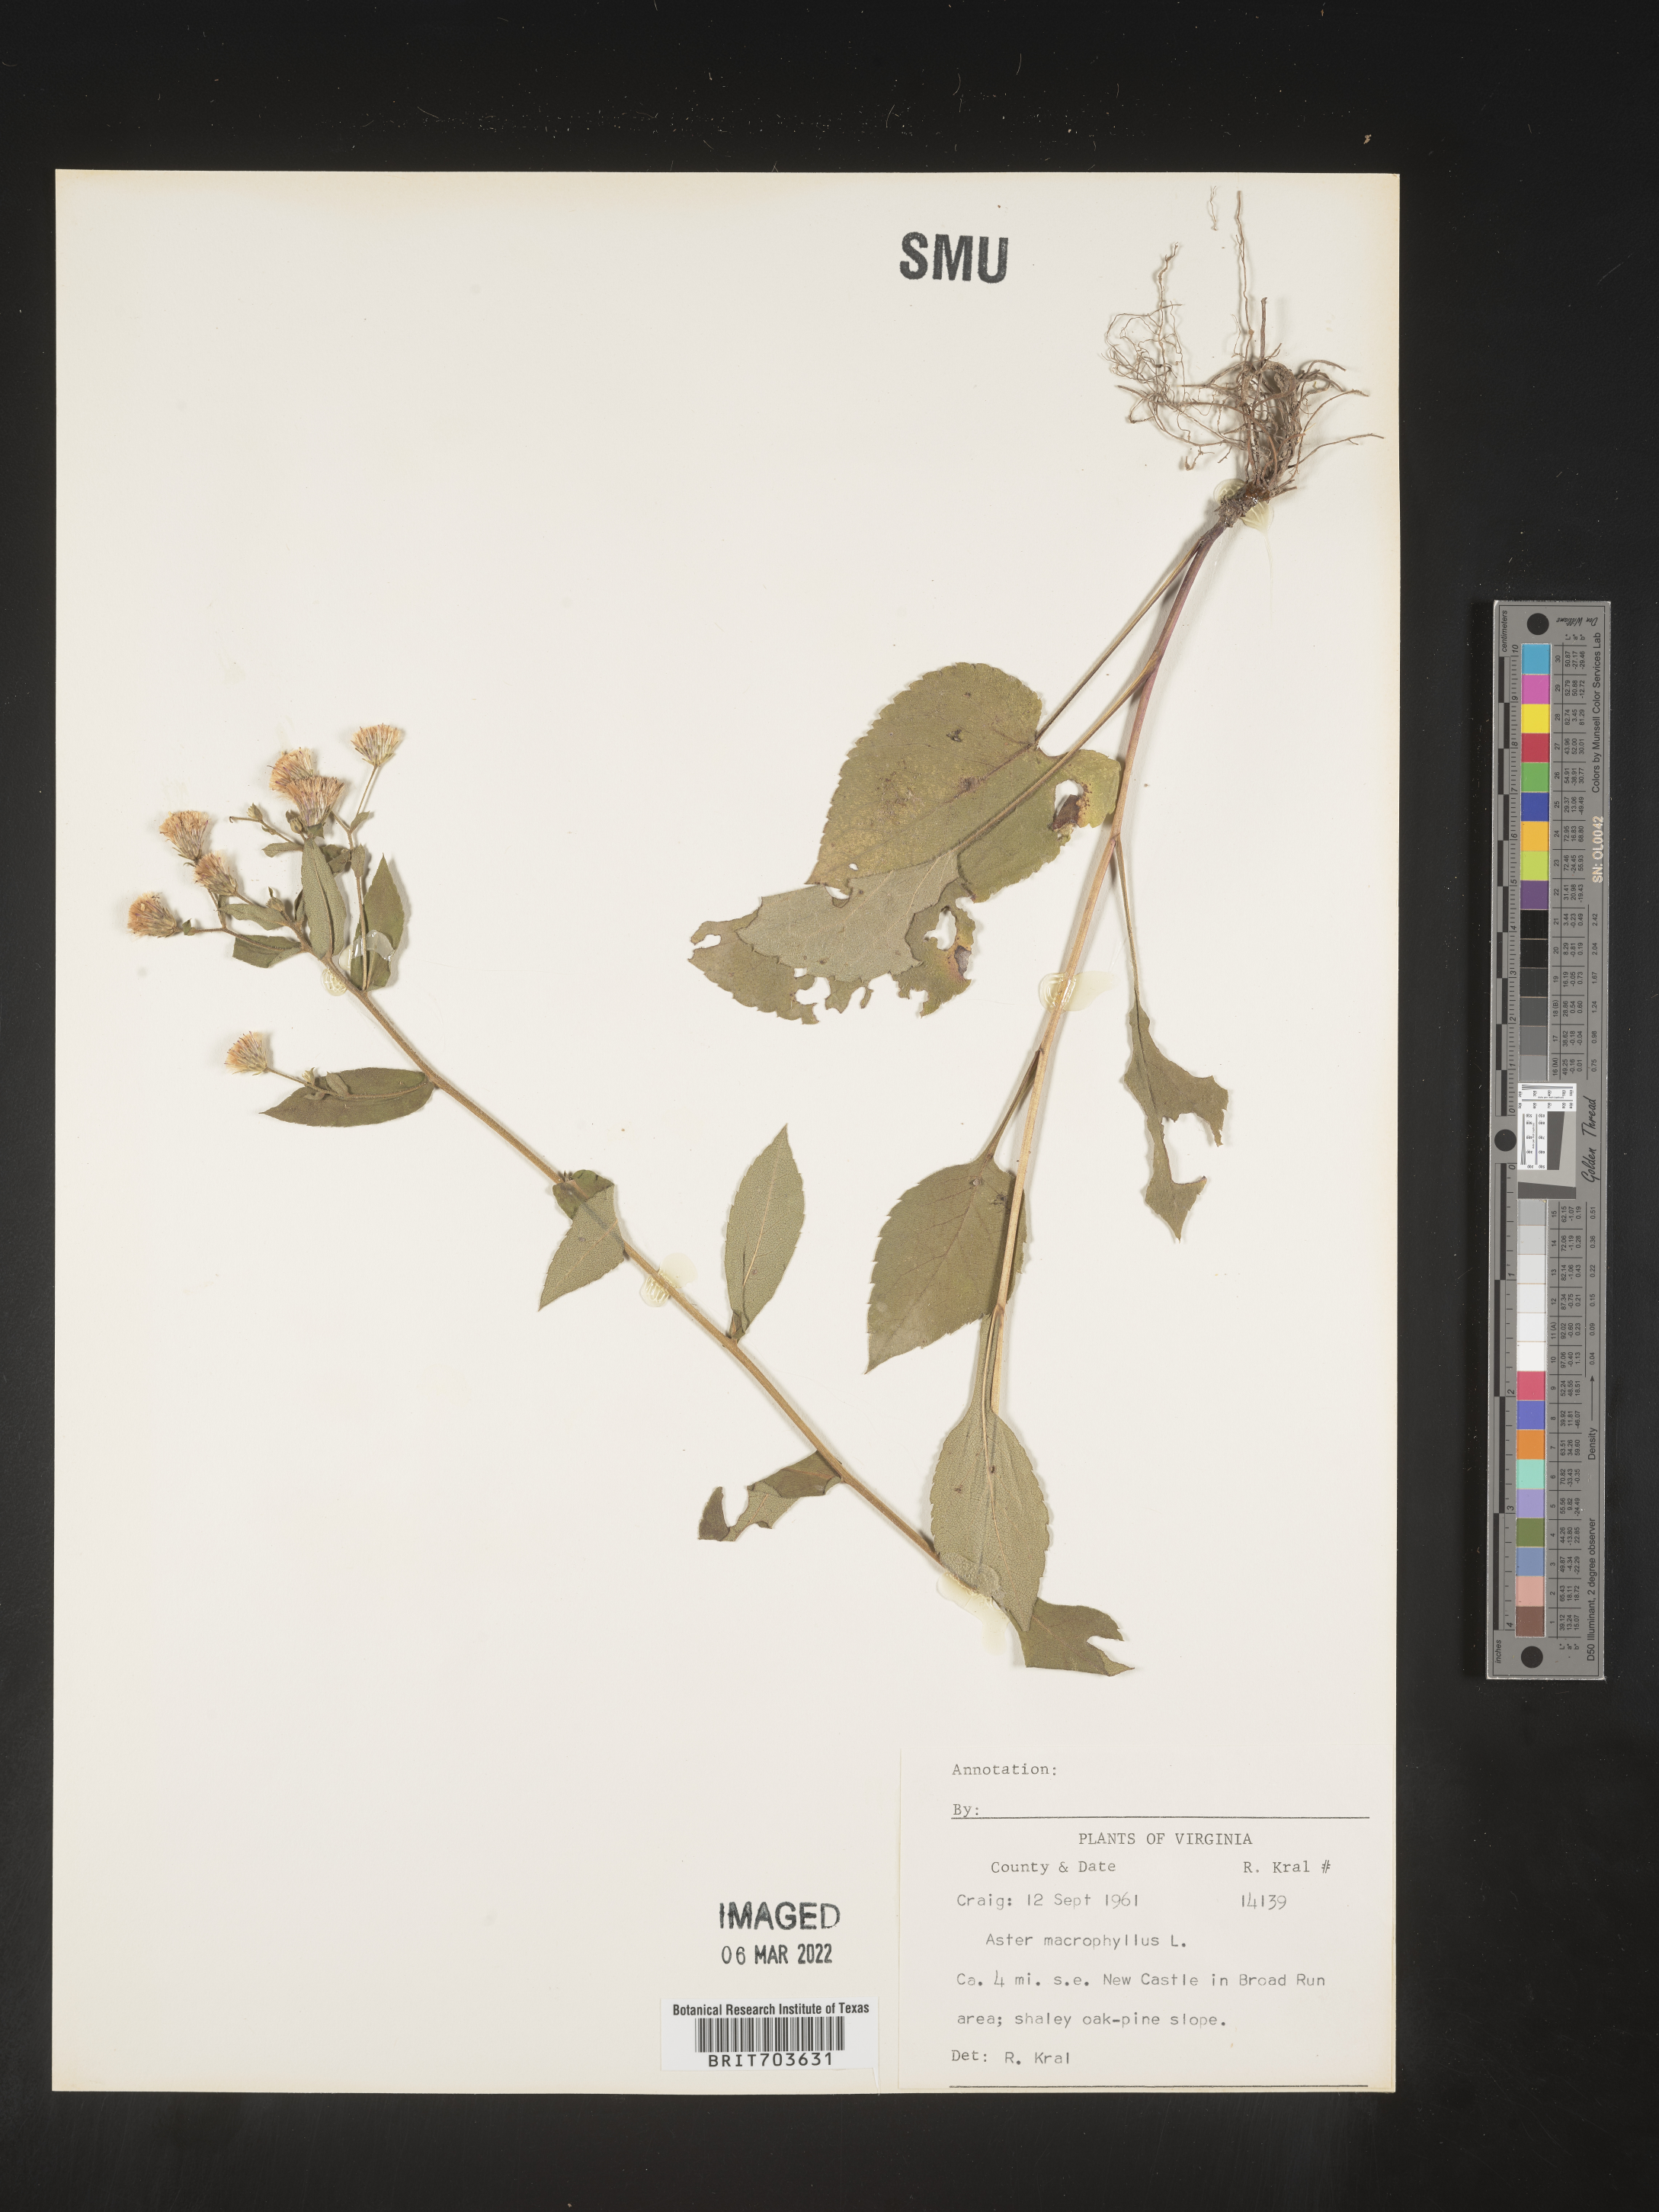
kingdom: Plantae
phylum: Tracheophyta
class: Magnoliopsida
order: Asterales
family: Asteraceae
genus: Eurybia
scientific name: Eurybia macrophylla
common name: Big-leaved aster
